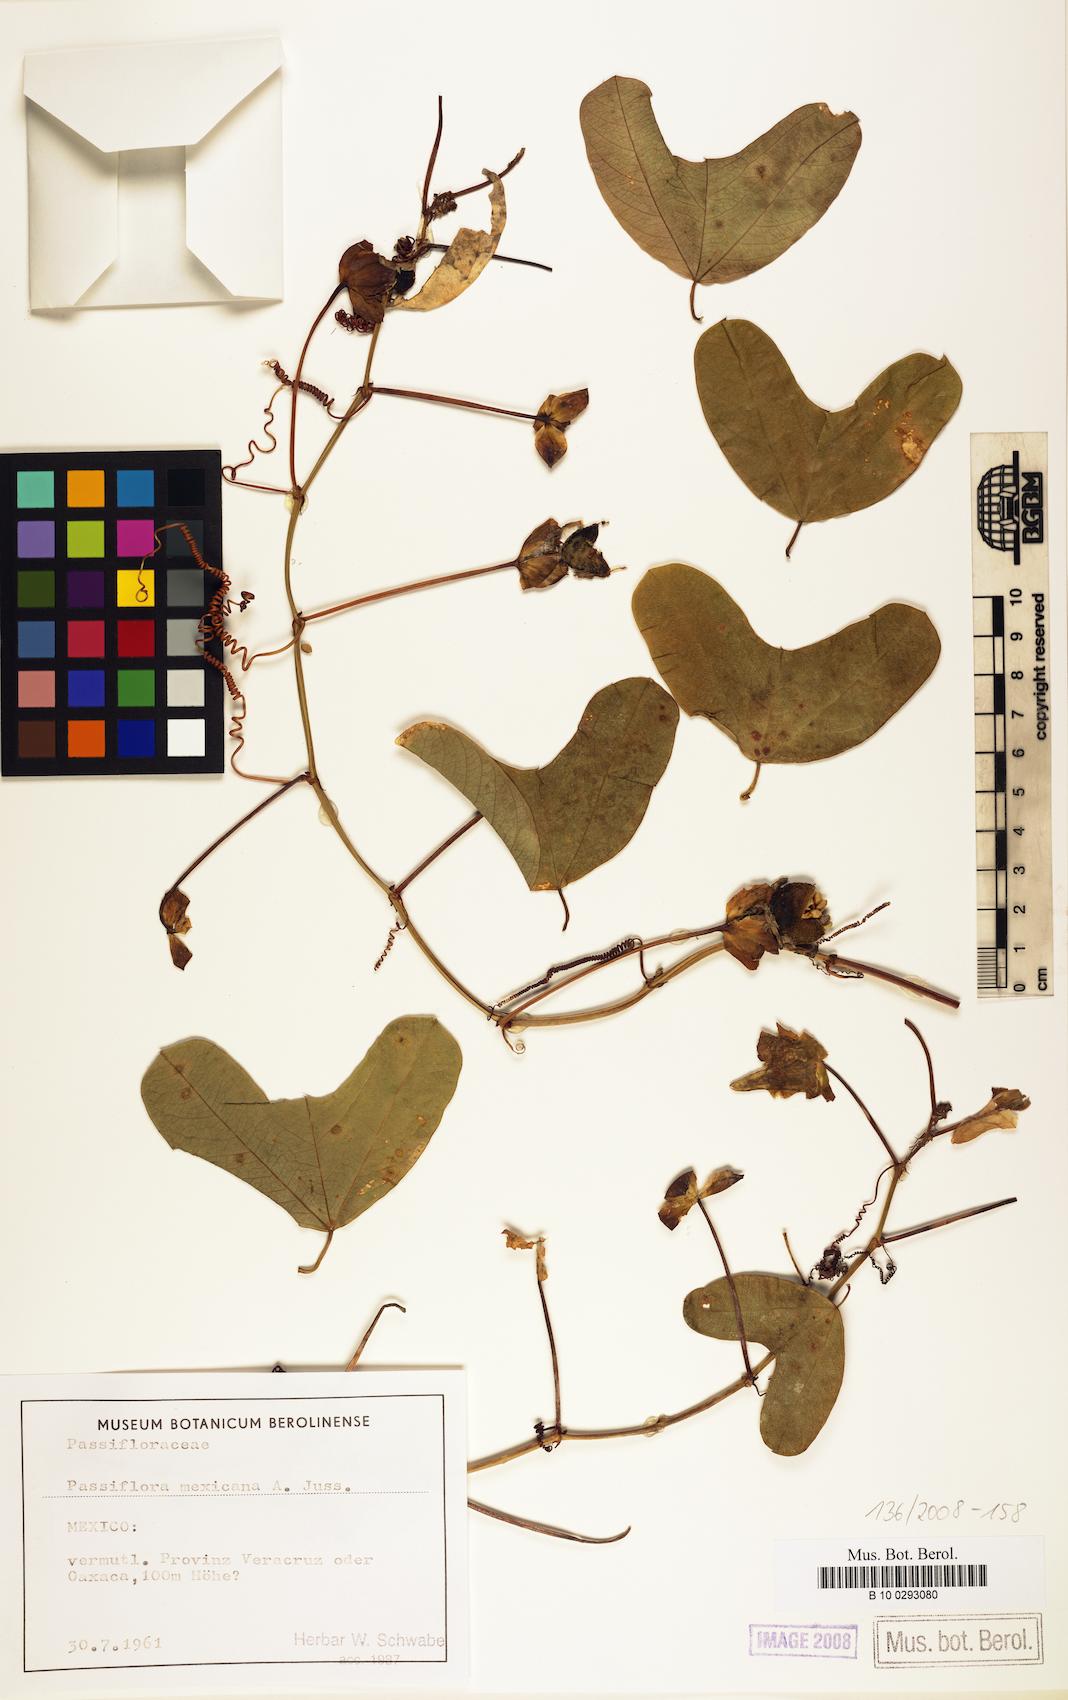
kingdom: Plantae
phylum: Tracheophyta
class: Magnoliopsida
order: Malpighiales
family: Passifloraceae
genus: Passiflora
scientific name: Passiflora mexicana
